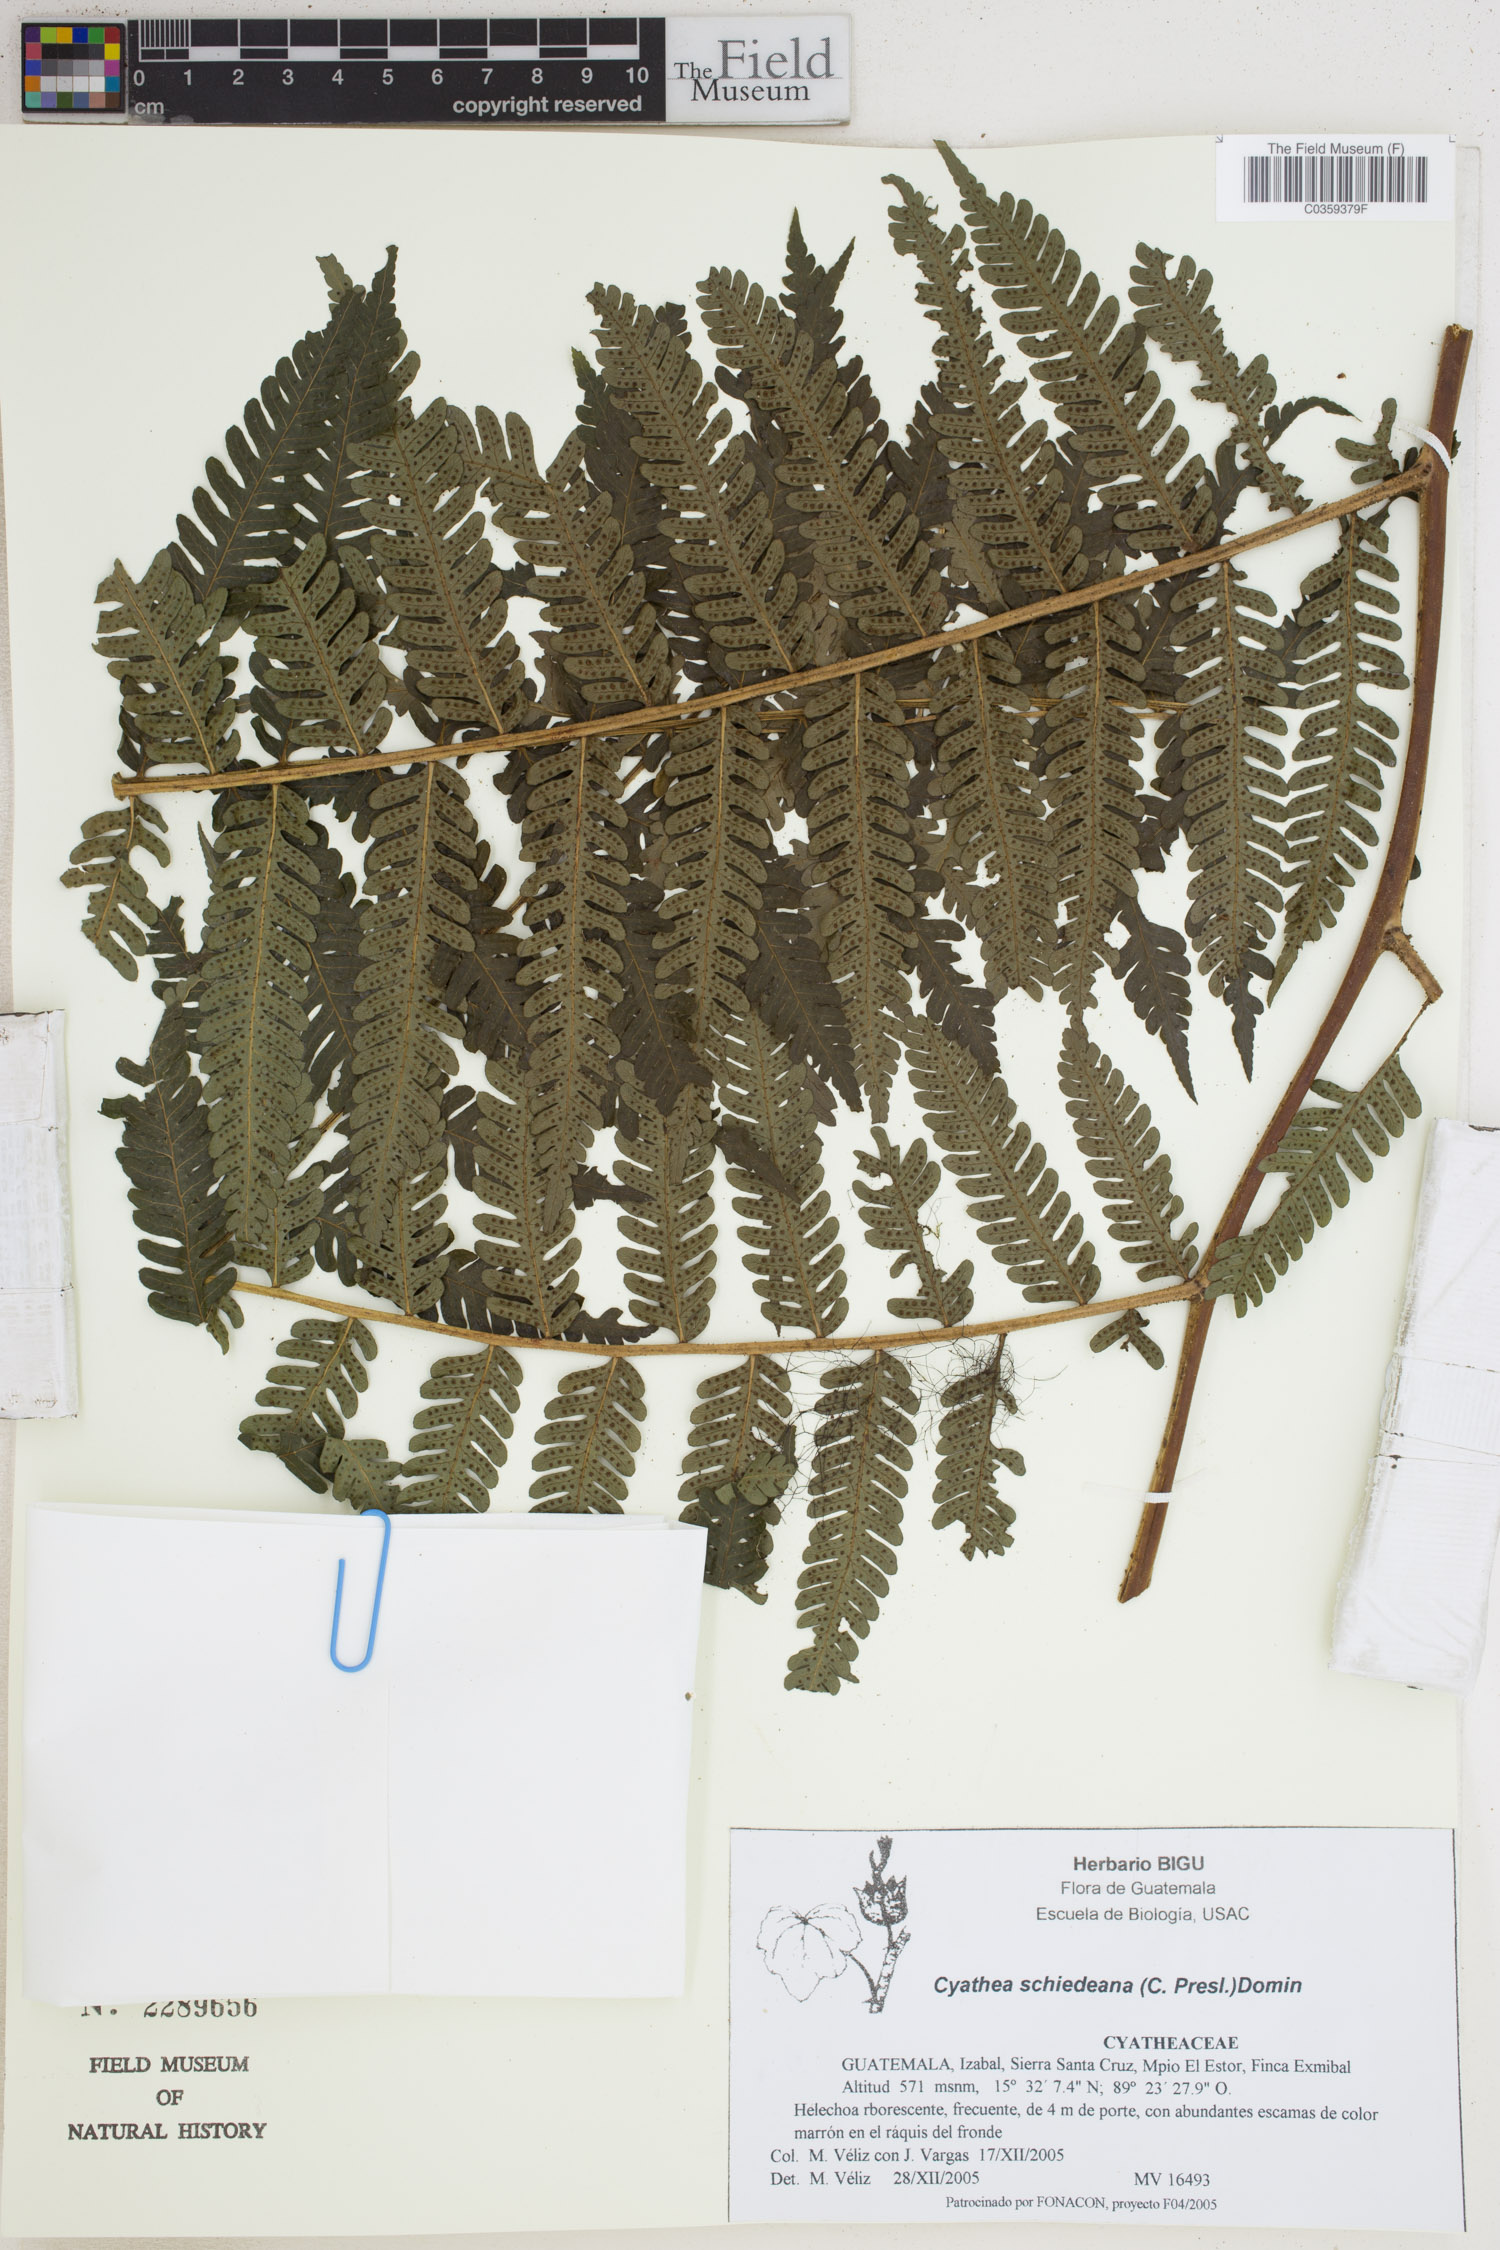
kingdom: Plantae
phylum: Tracheophyta
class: Polypodiopsida
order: Cyatheales
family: Cyatheaceae
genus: Cyathea
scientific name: Cyathea costaricensis
